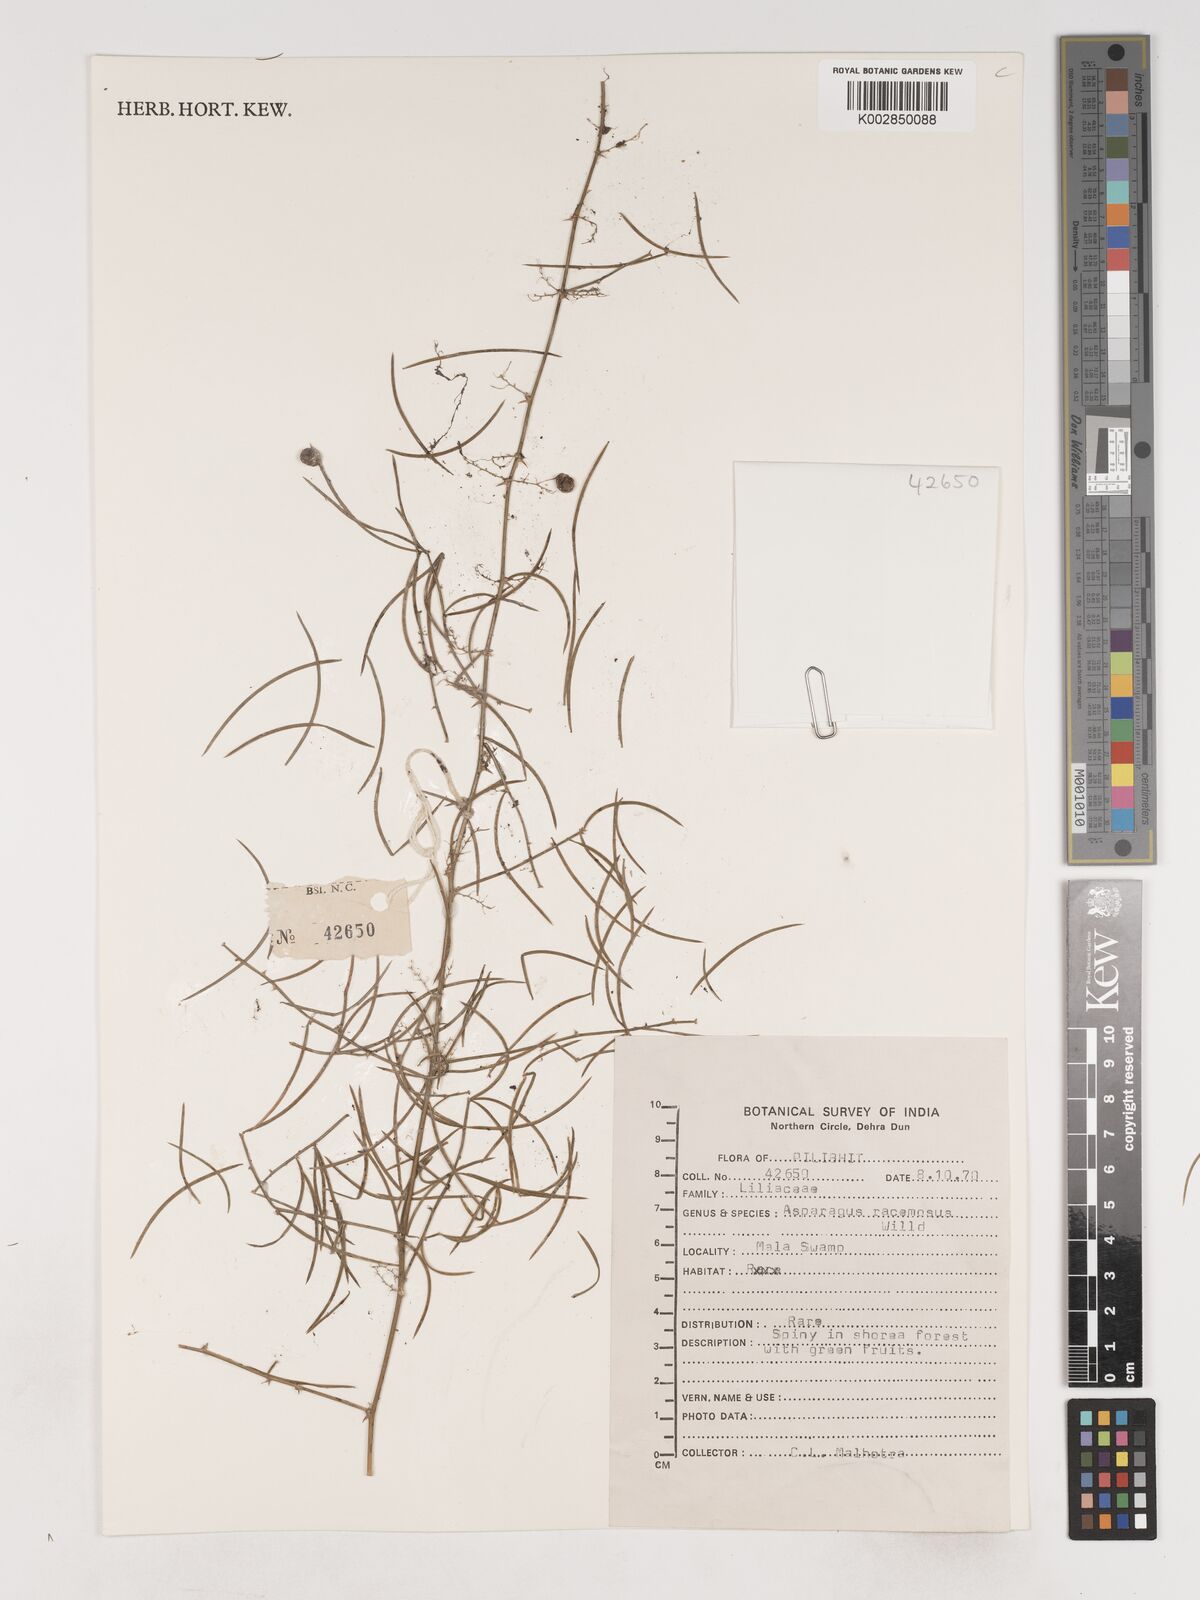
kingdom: Plantae
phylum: Tracheophyta
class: Liliopsida
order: Asparagales
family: Asparagaceae
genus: Asparagus
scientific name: Asparagus racemosus
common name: Asparagus-fern
